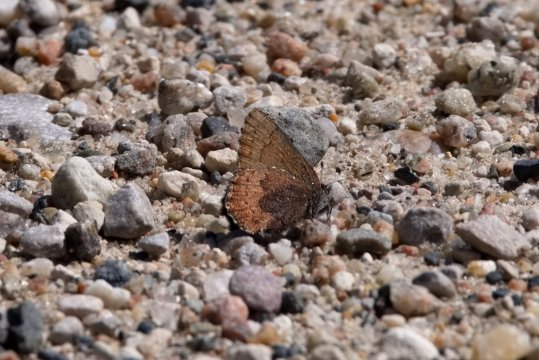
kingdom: Animalia
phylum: Arthropoda
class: Insecta
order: Lepidoptera
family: Lycaenidae
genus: Incisalia
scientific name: Incisalia irioides
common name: Brown Elfin
